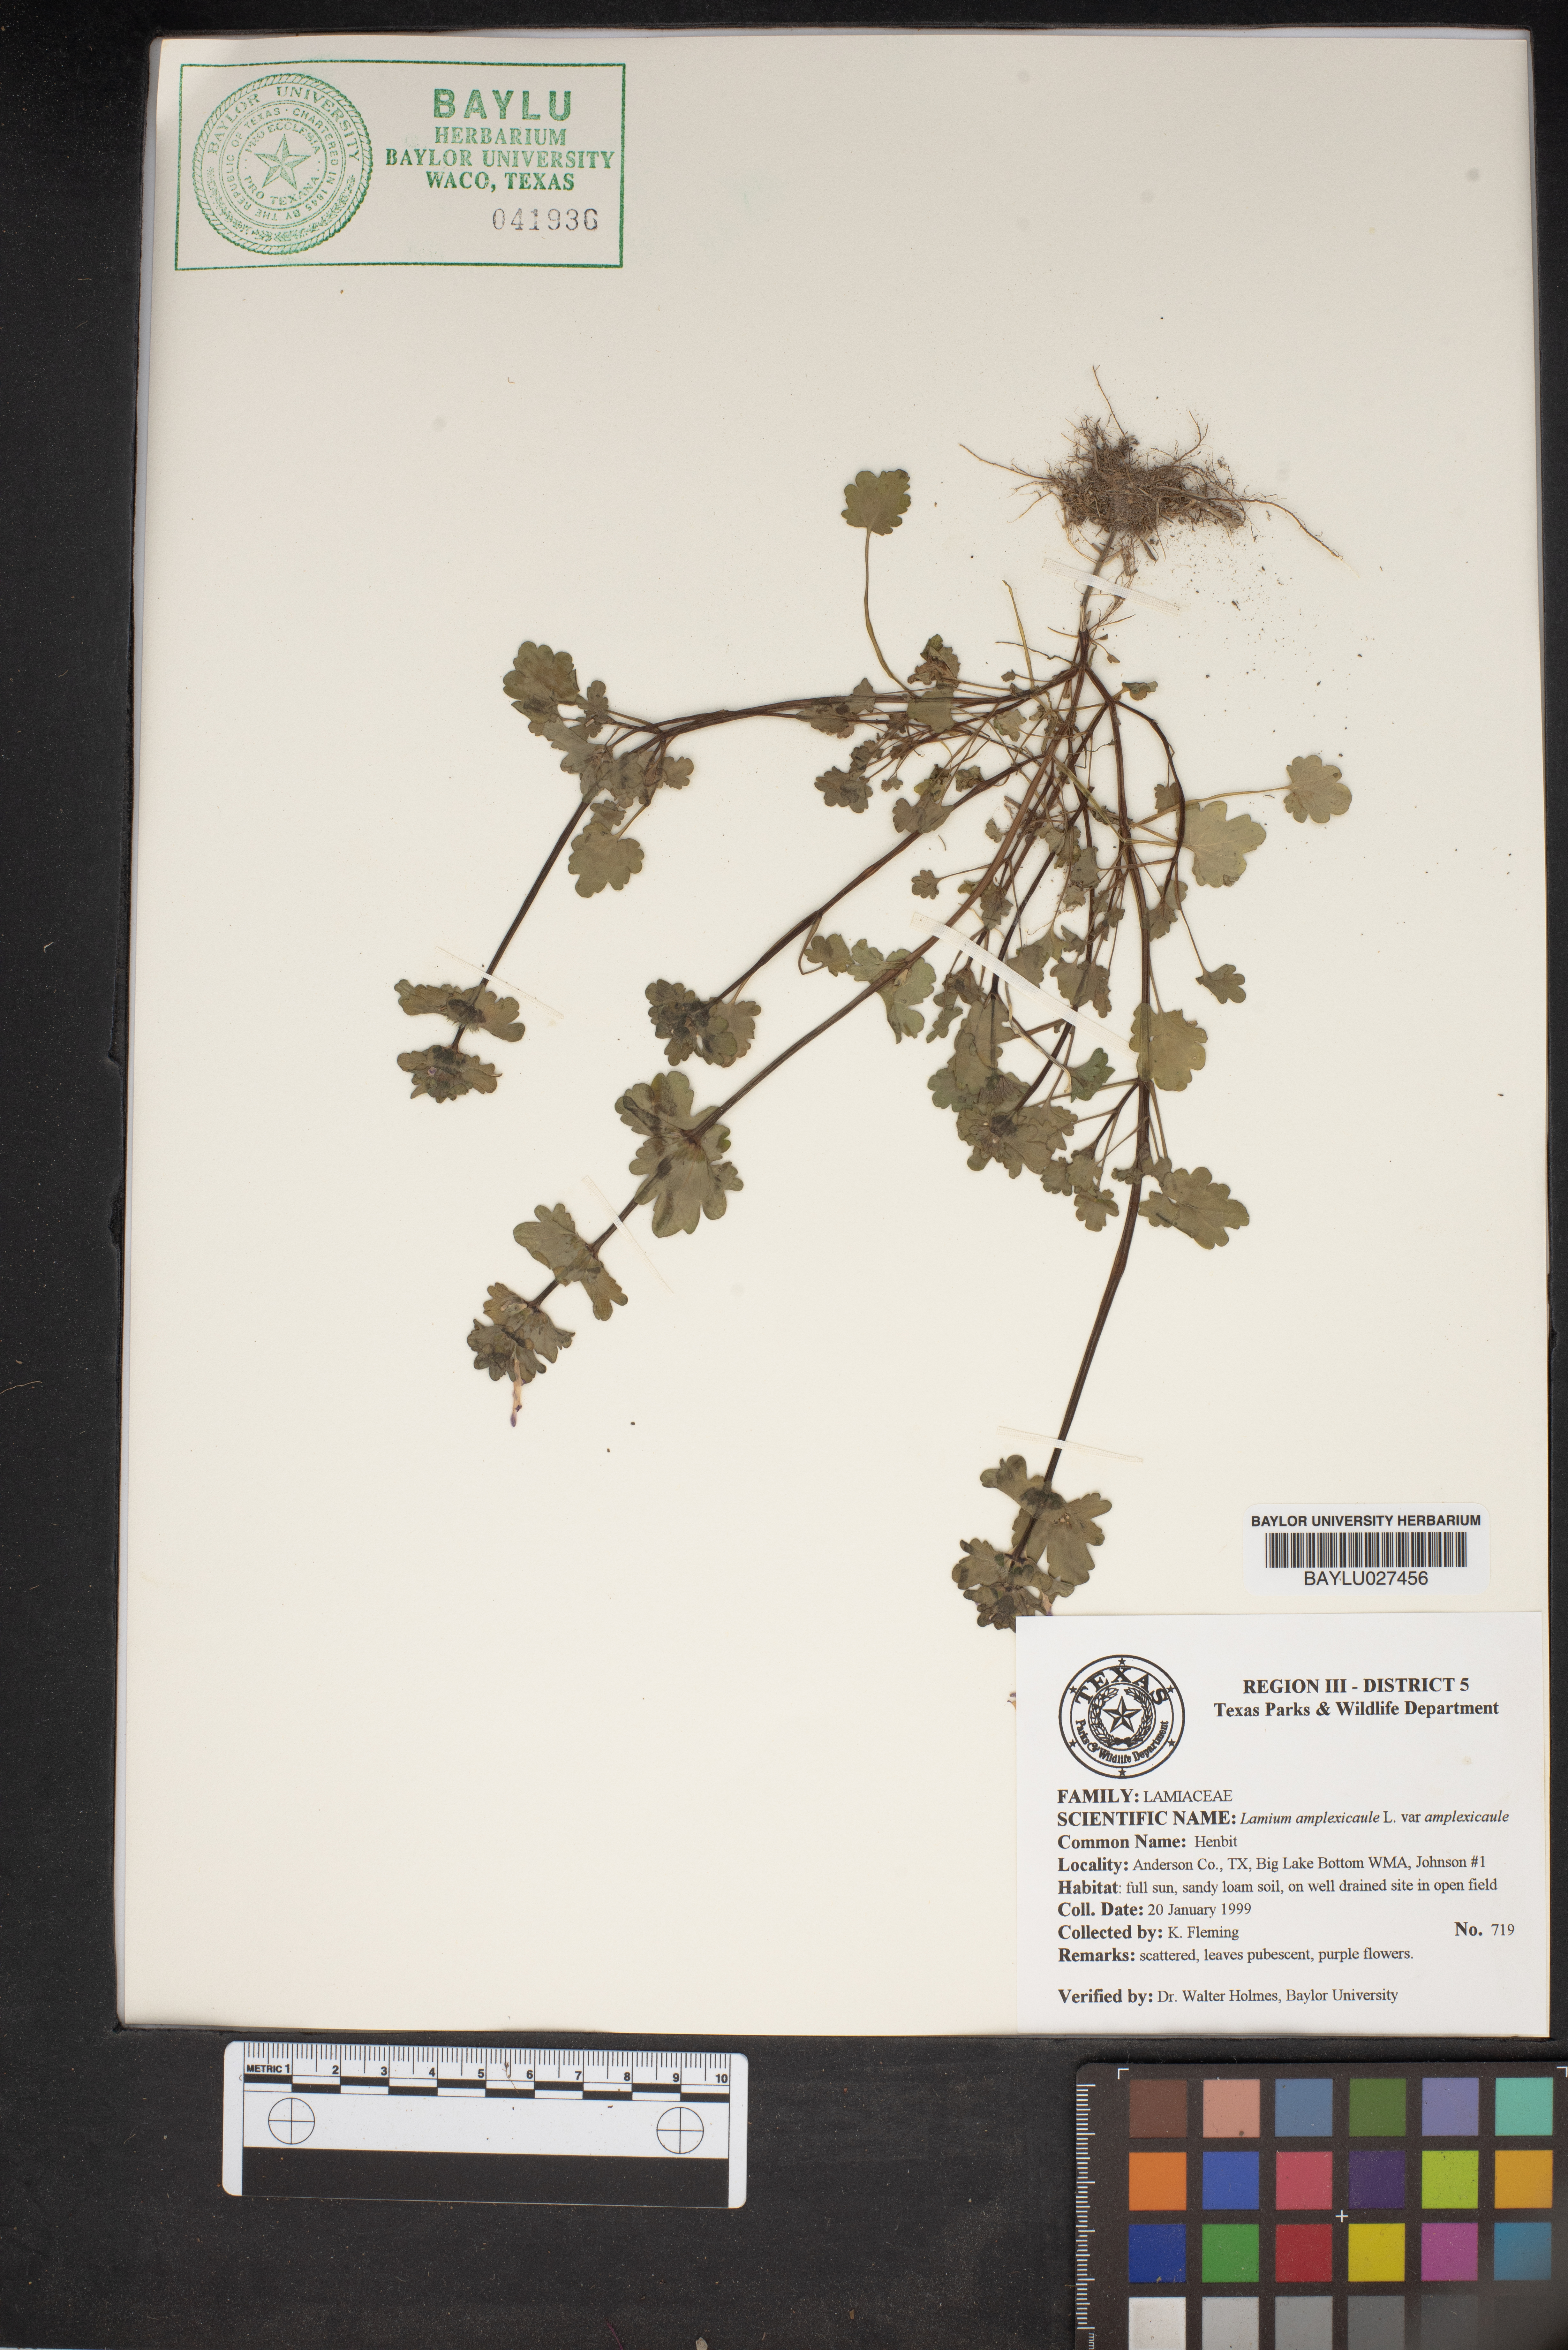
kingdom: Plantae
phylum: Tracheophyta
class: Magnoliopsida
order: Lamiales
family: Lamiaceae
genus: Lamium
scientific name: Lamium amplexicaule
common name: Henbit dead-nettle
